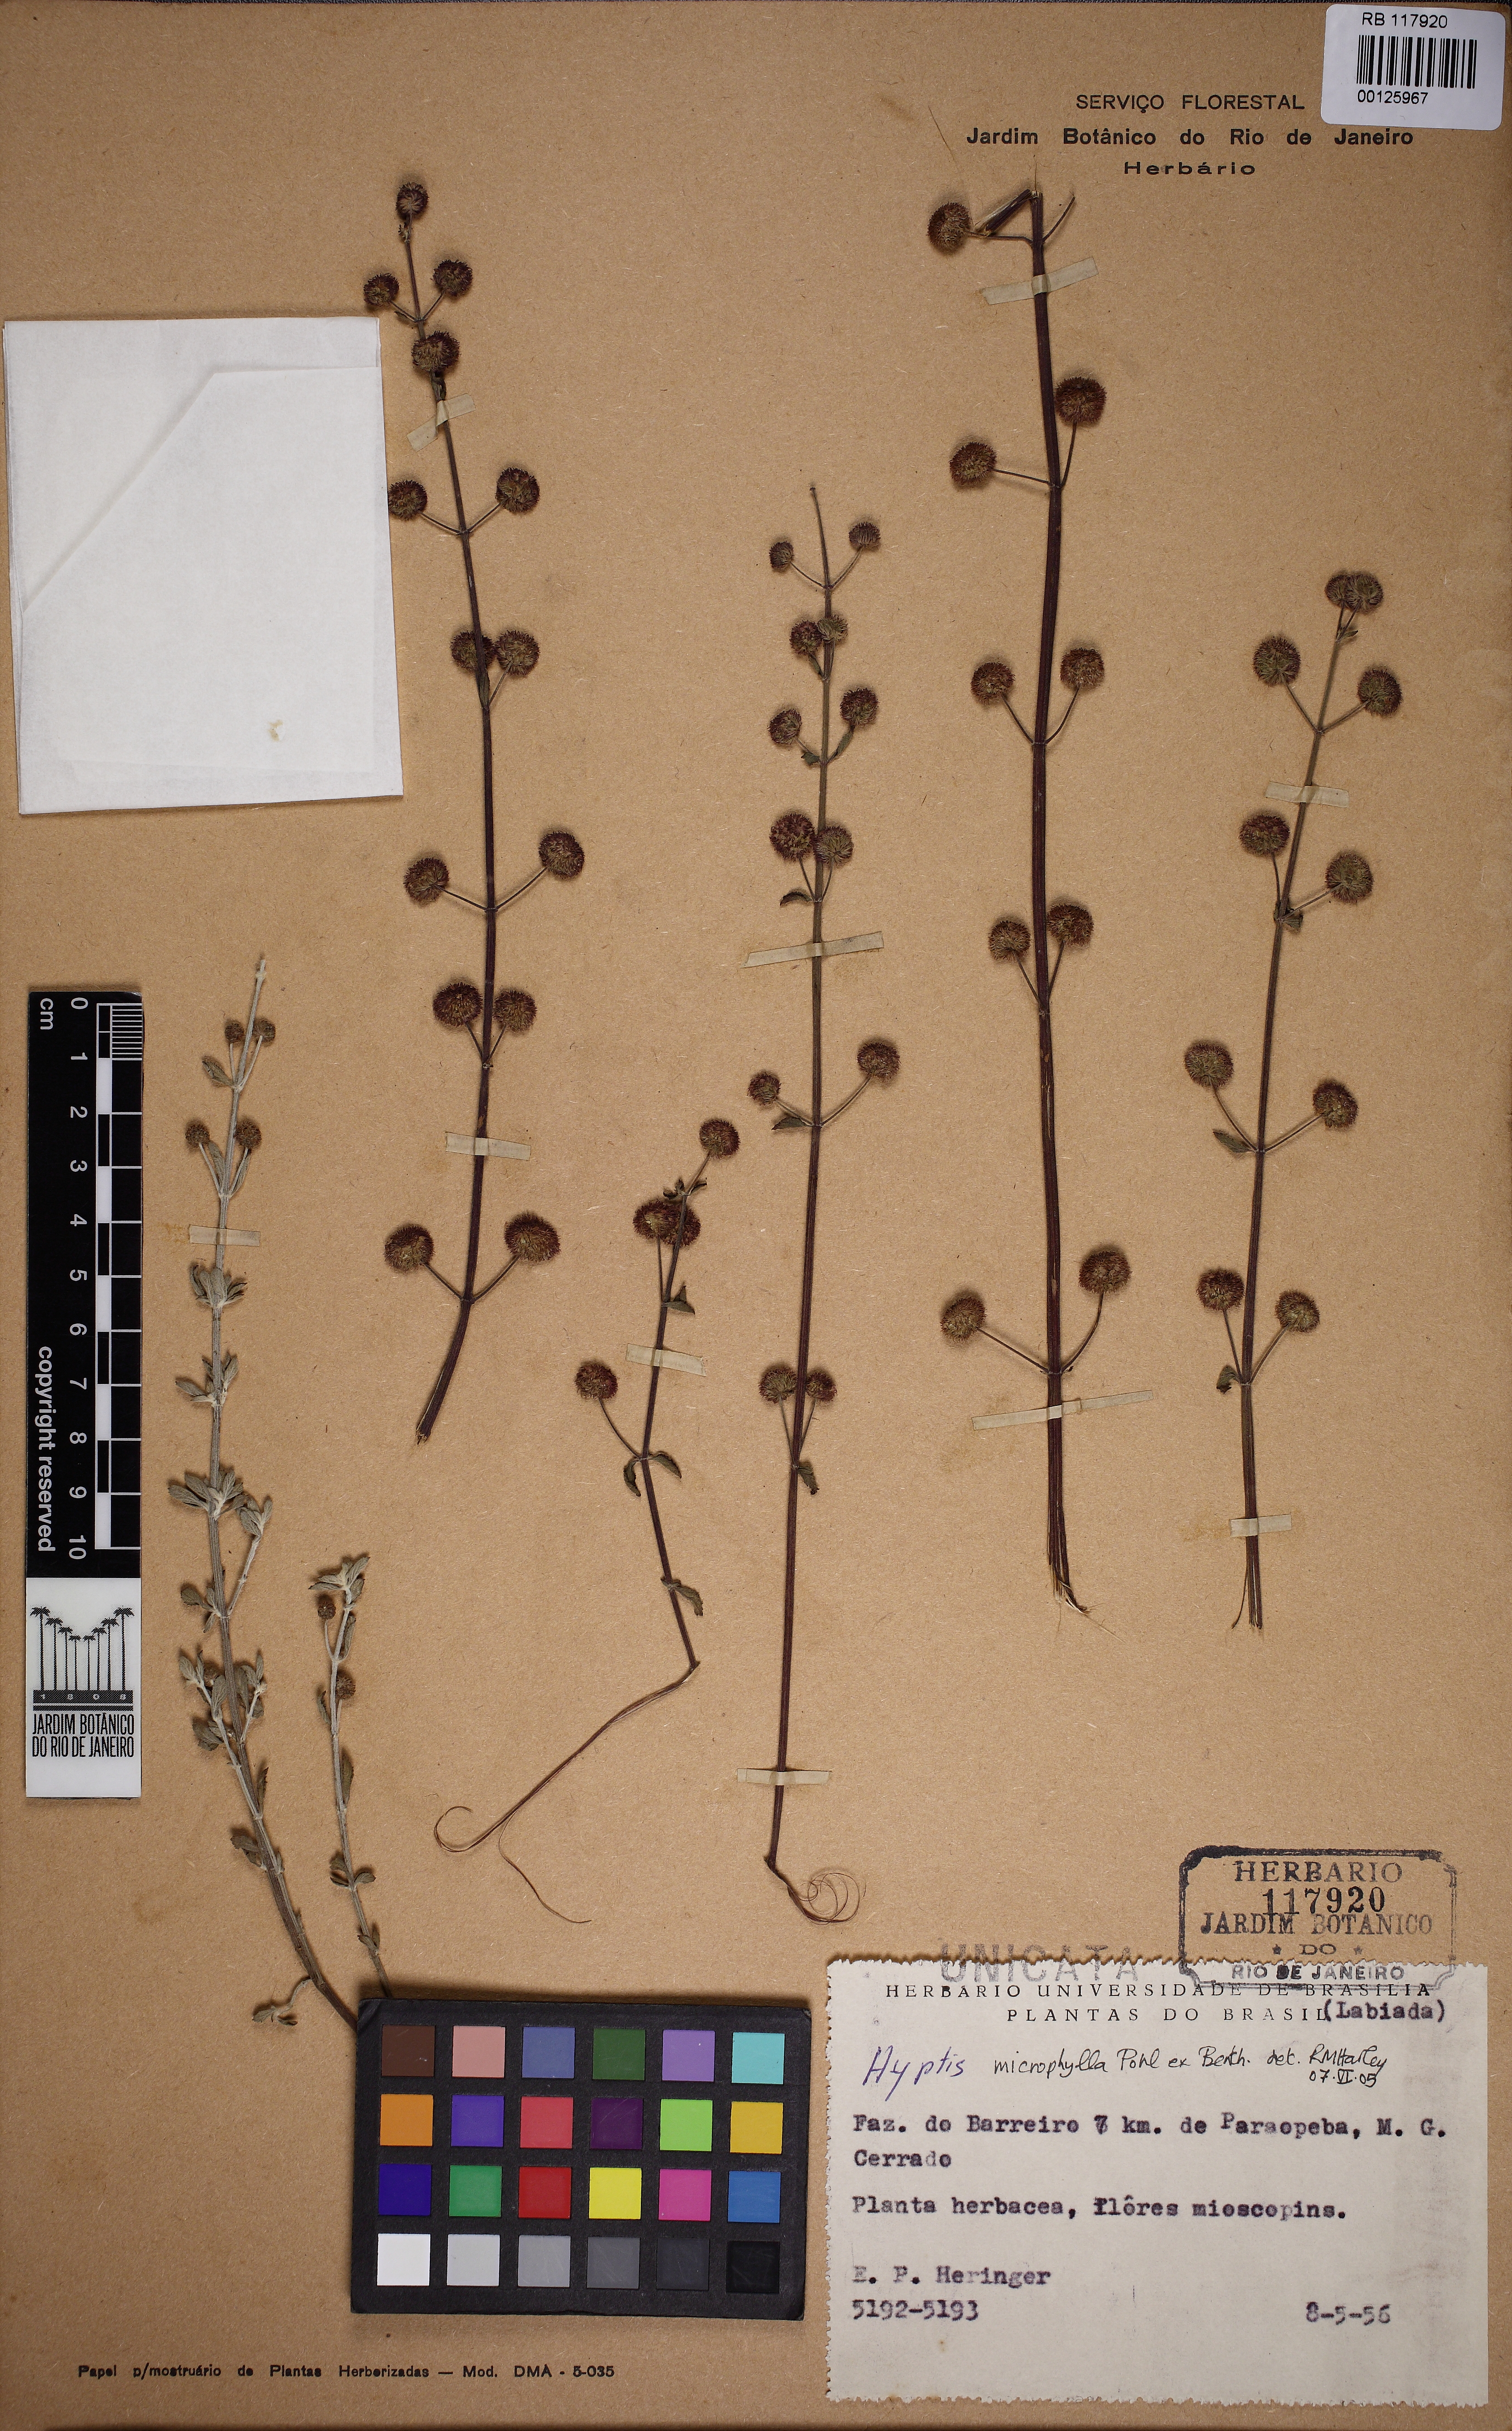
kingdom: Plantae
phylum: Tracheophyta
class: Magnoliopsida
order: Lamiales
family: Lamiaceae
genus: Hyptis
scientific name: Hyptis microphylla
